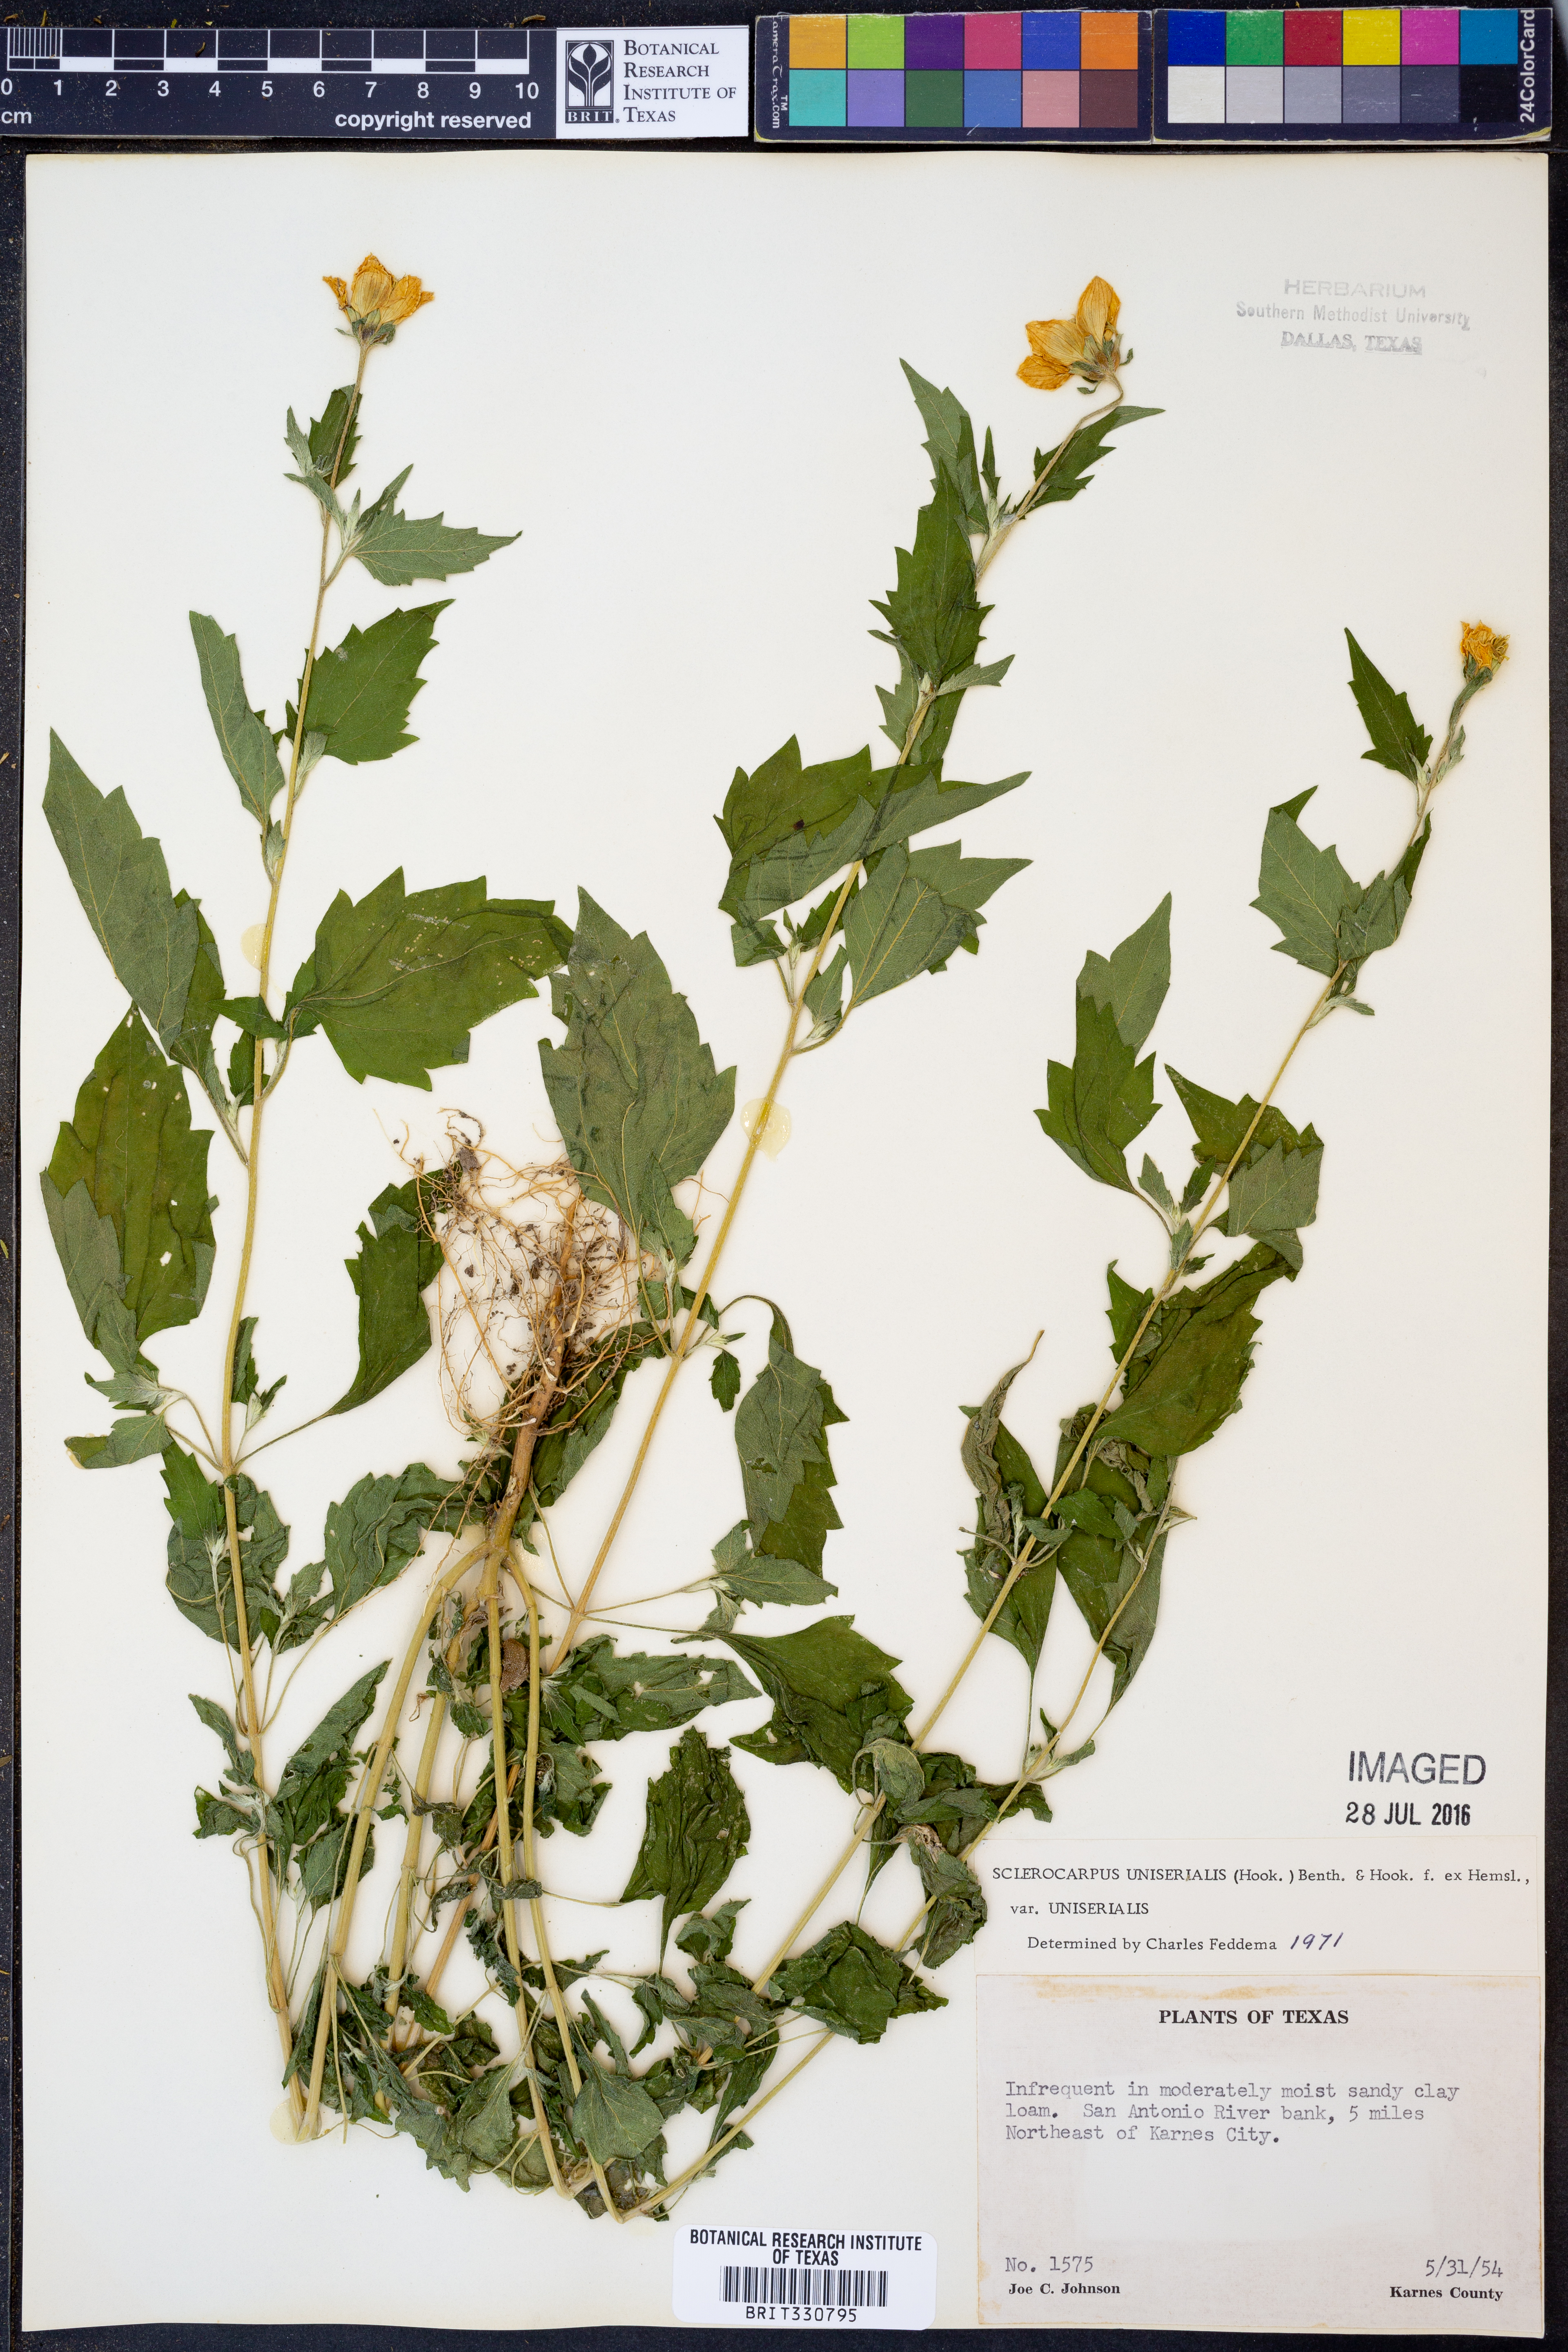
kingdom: Plantae
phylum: Tracheophyta
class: Magnoliopsida
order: Asterales
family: Asteraceae
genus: Sclerocarpus
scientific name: Sclerocarpus uniserialis
